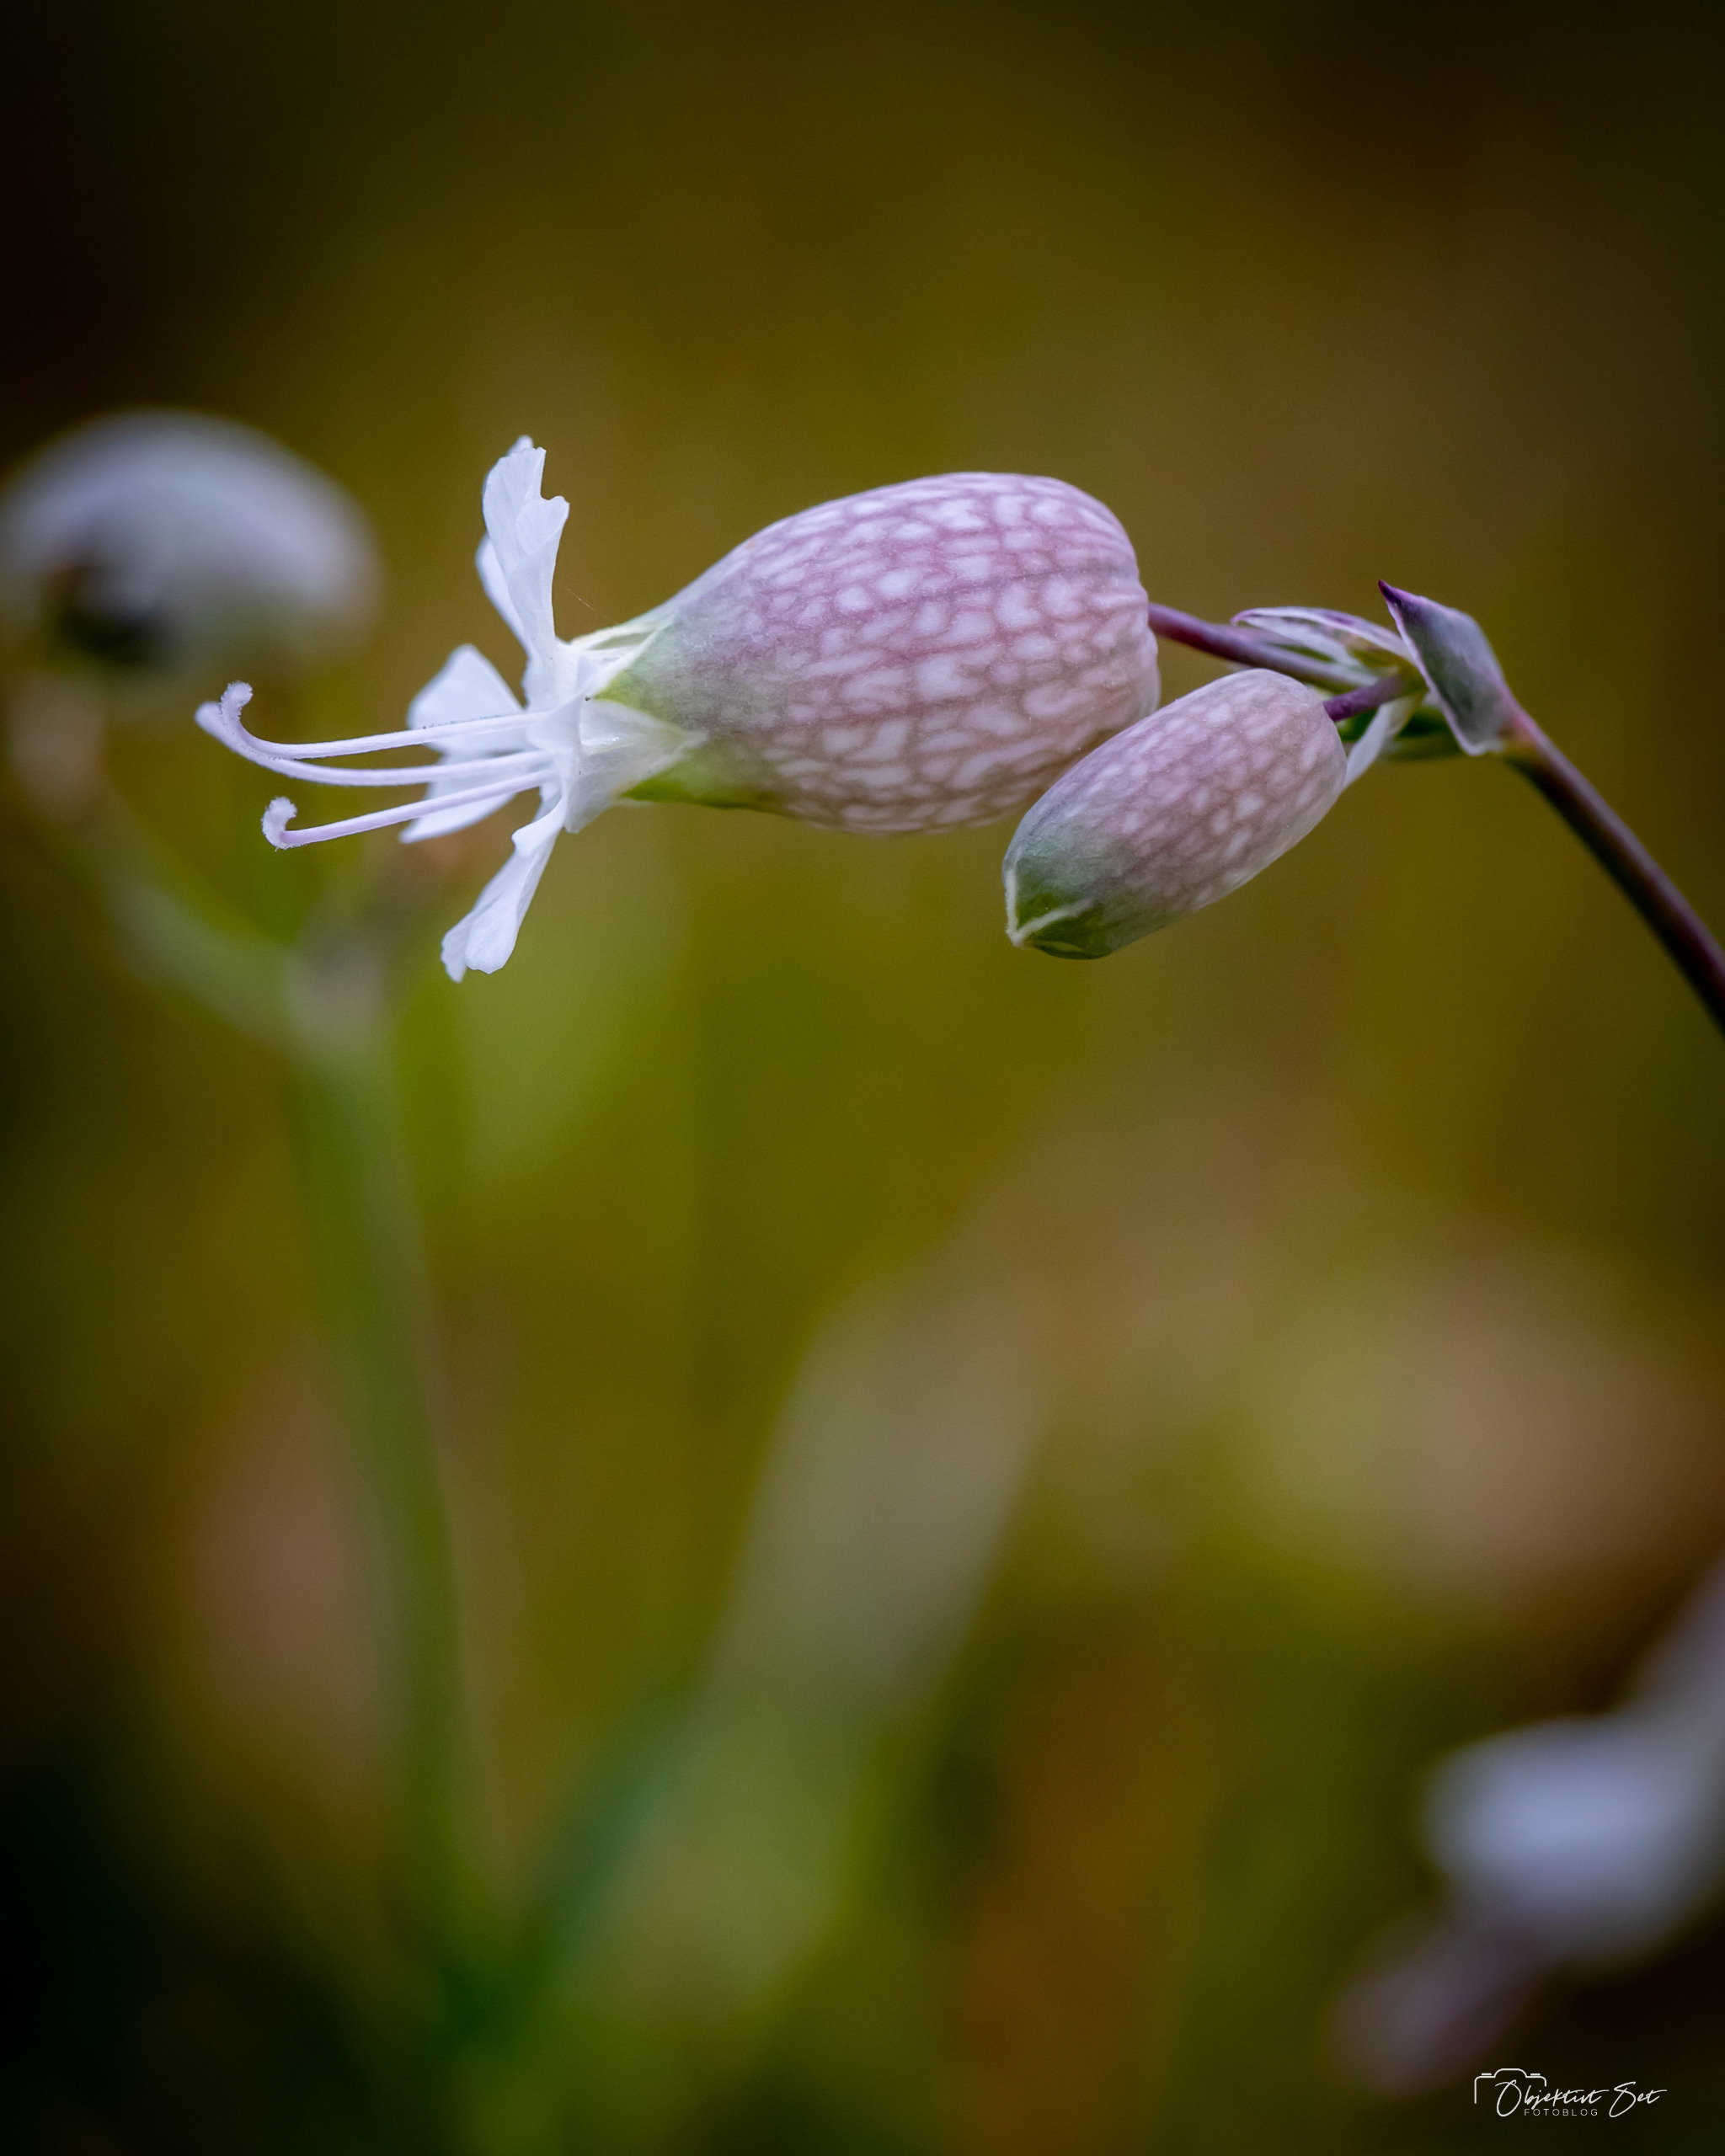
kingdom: Plantae
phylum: Tracheophyta
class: Magnoliopsida
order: Caryophyllales
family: Caryophyllaceae
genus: Silene
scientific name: Silene vulgaris
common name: Blæresmælde
